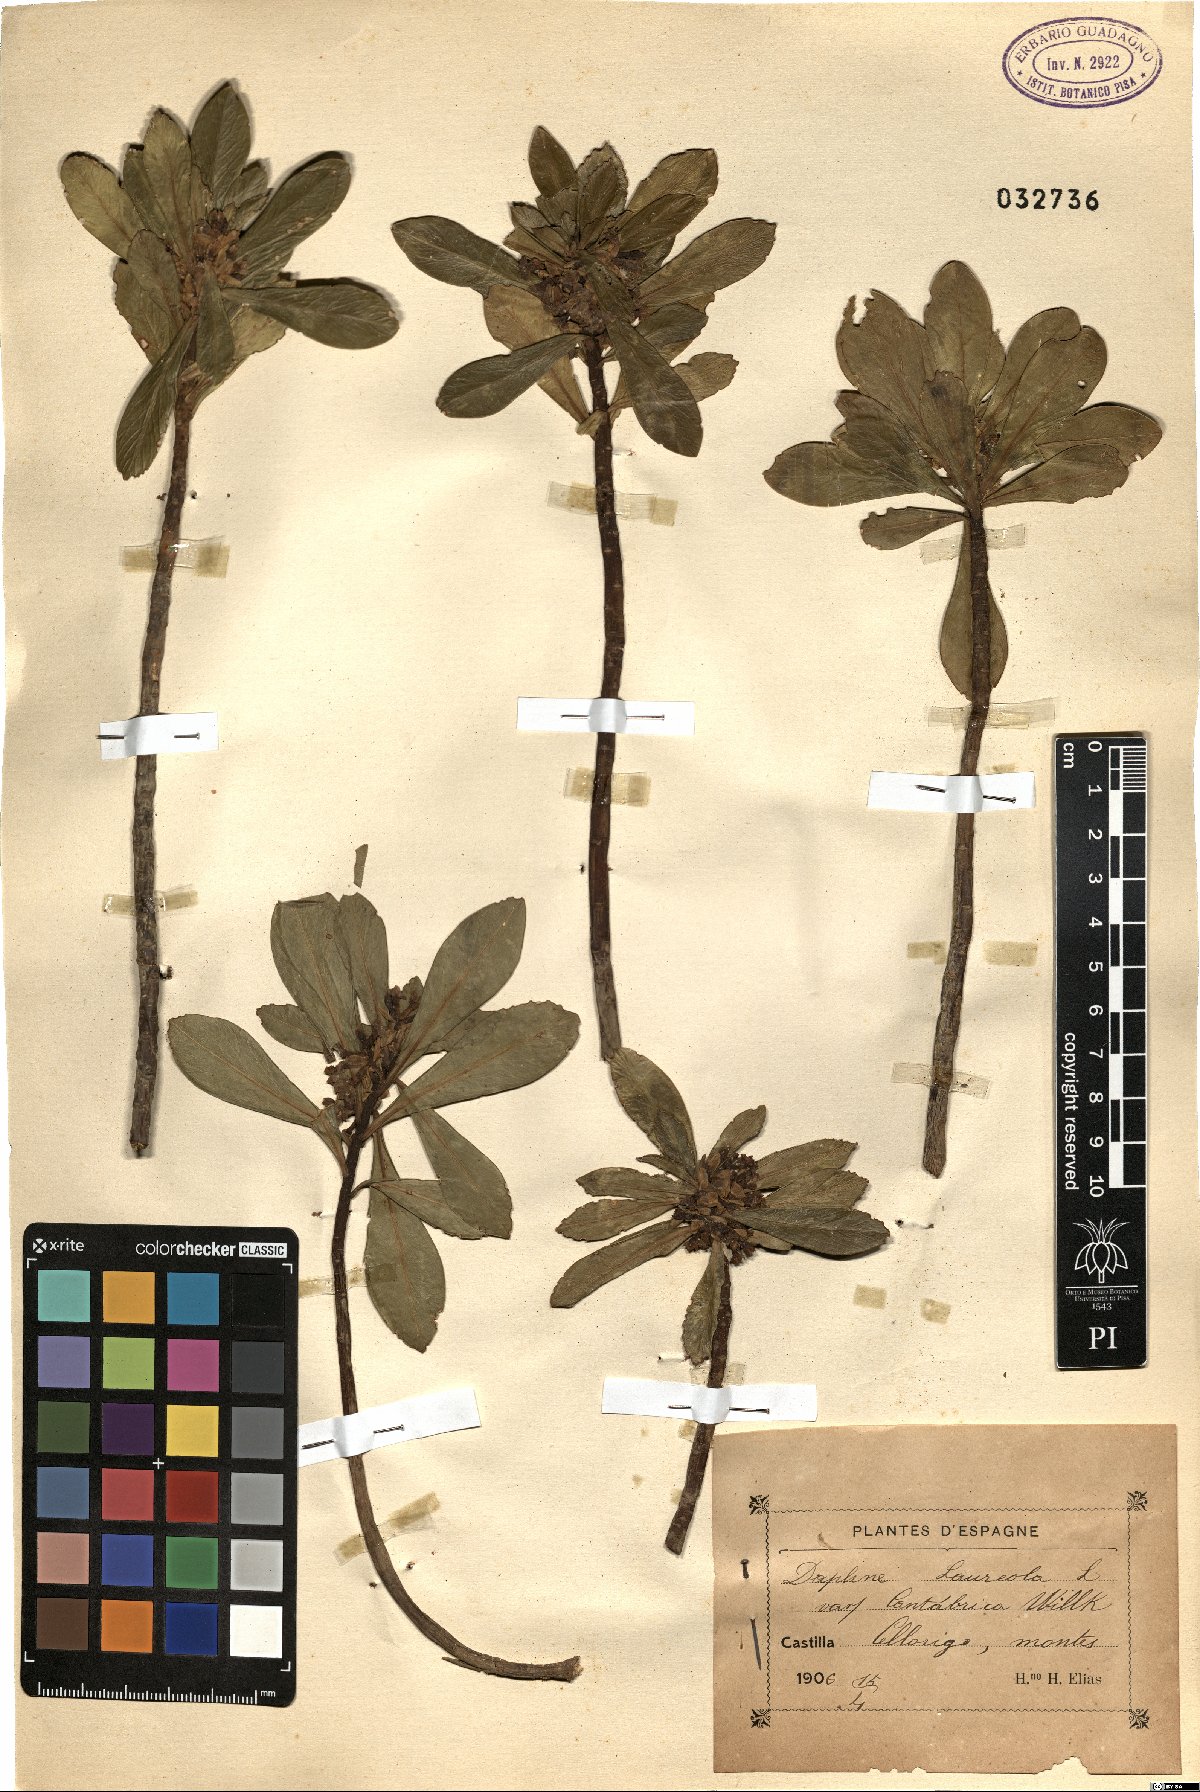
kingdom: Plantae
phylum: Tracheophyta
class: Magnoliopsida
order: Malvales
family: Thymelaeaceae
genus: Daphne
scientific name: Daphne laureola
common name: Spurge-laurel
